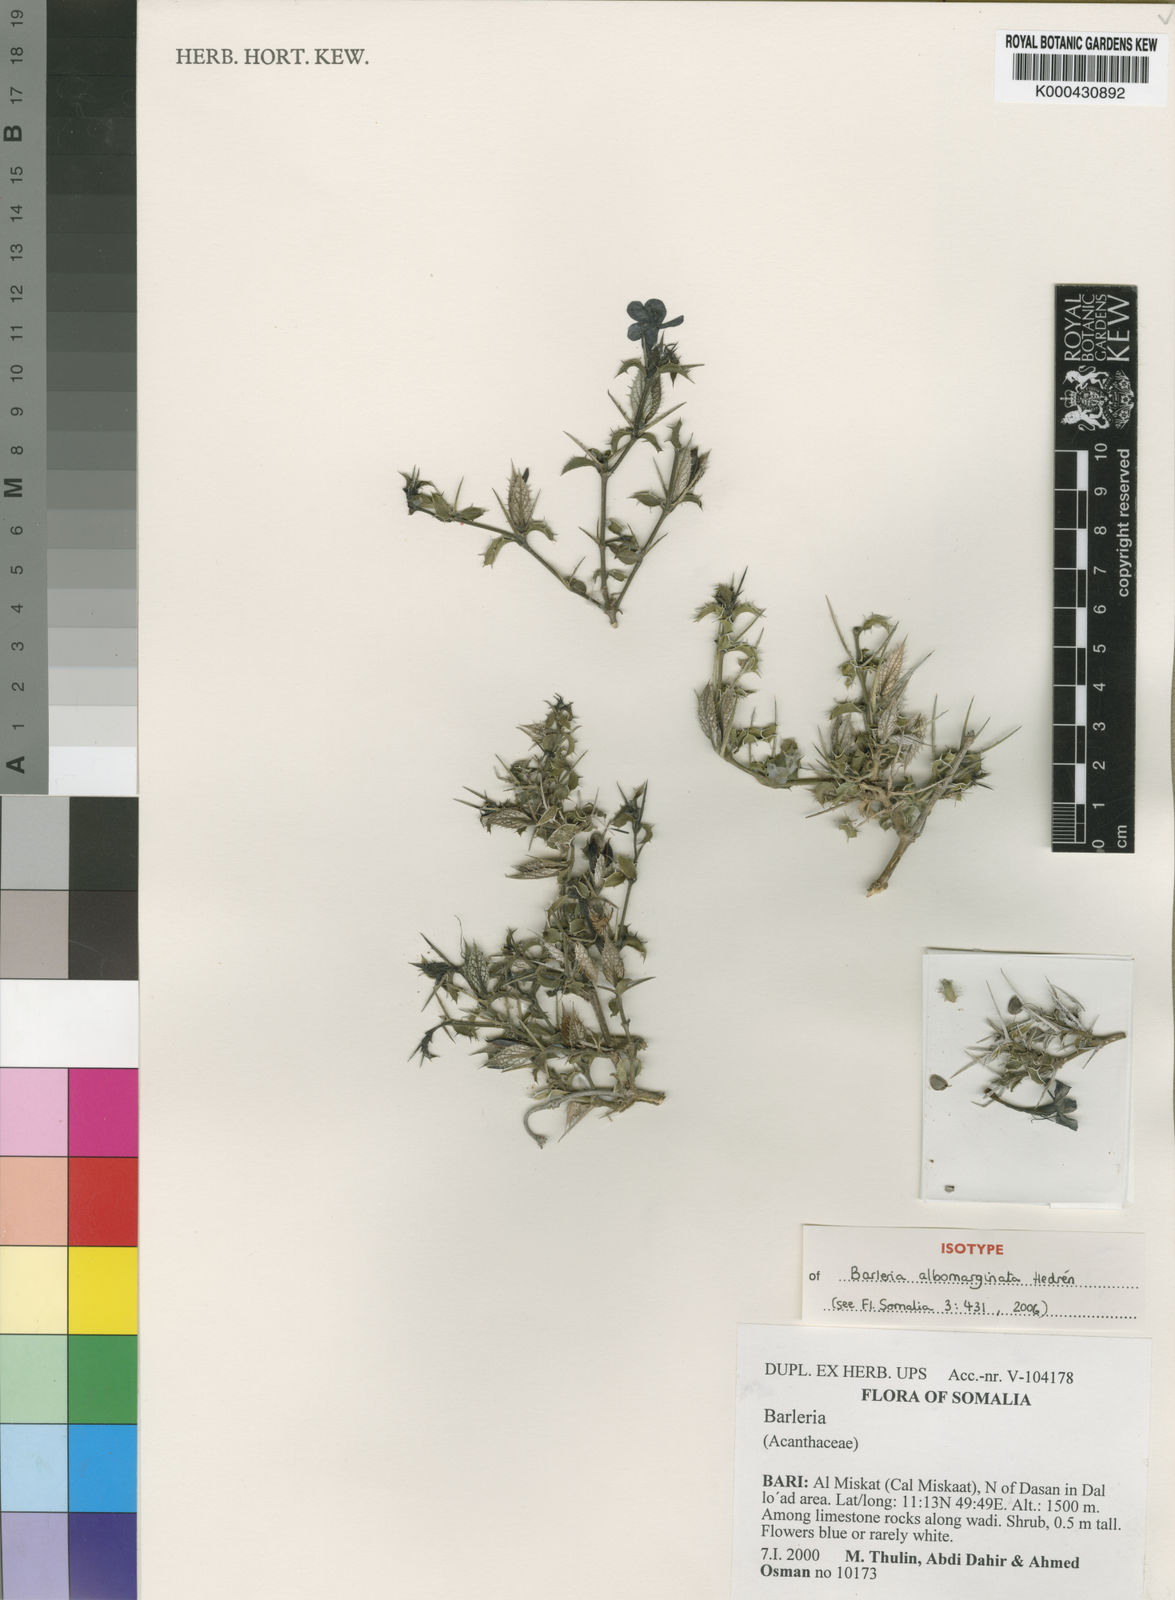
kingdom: Plantae
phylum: Tracheophyta
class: Magnoliopsida
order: Lamiales
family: Acanthaceae
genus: Barleria
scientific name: Barleria
